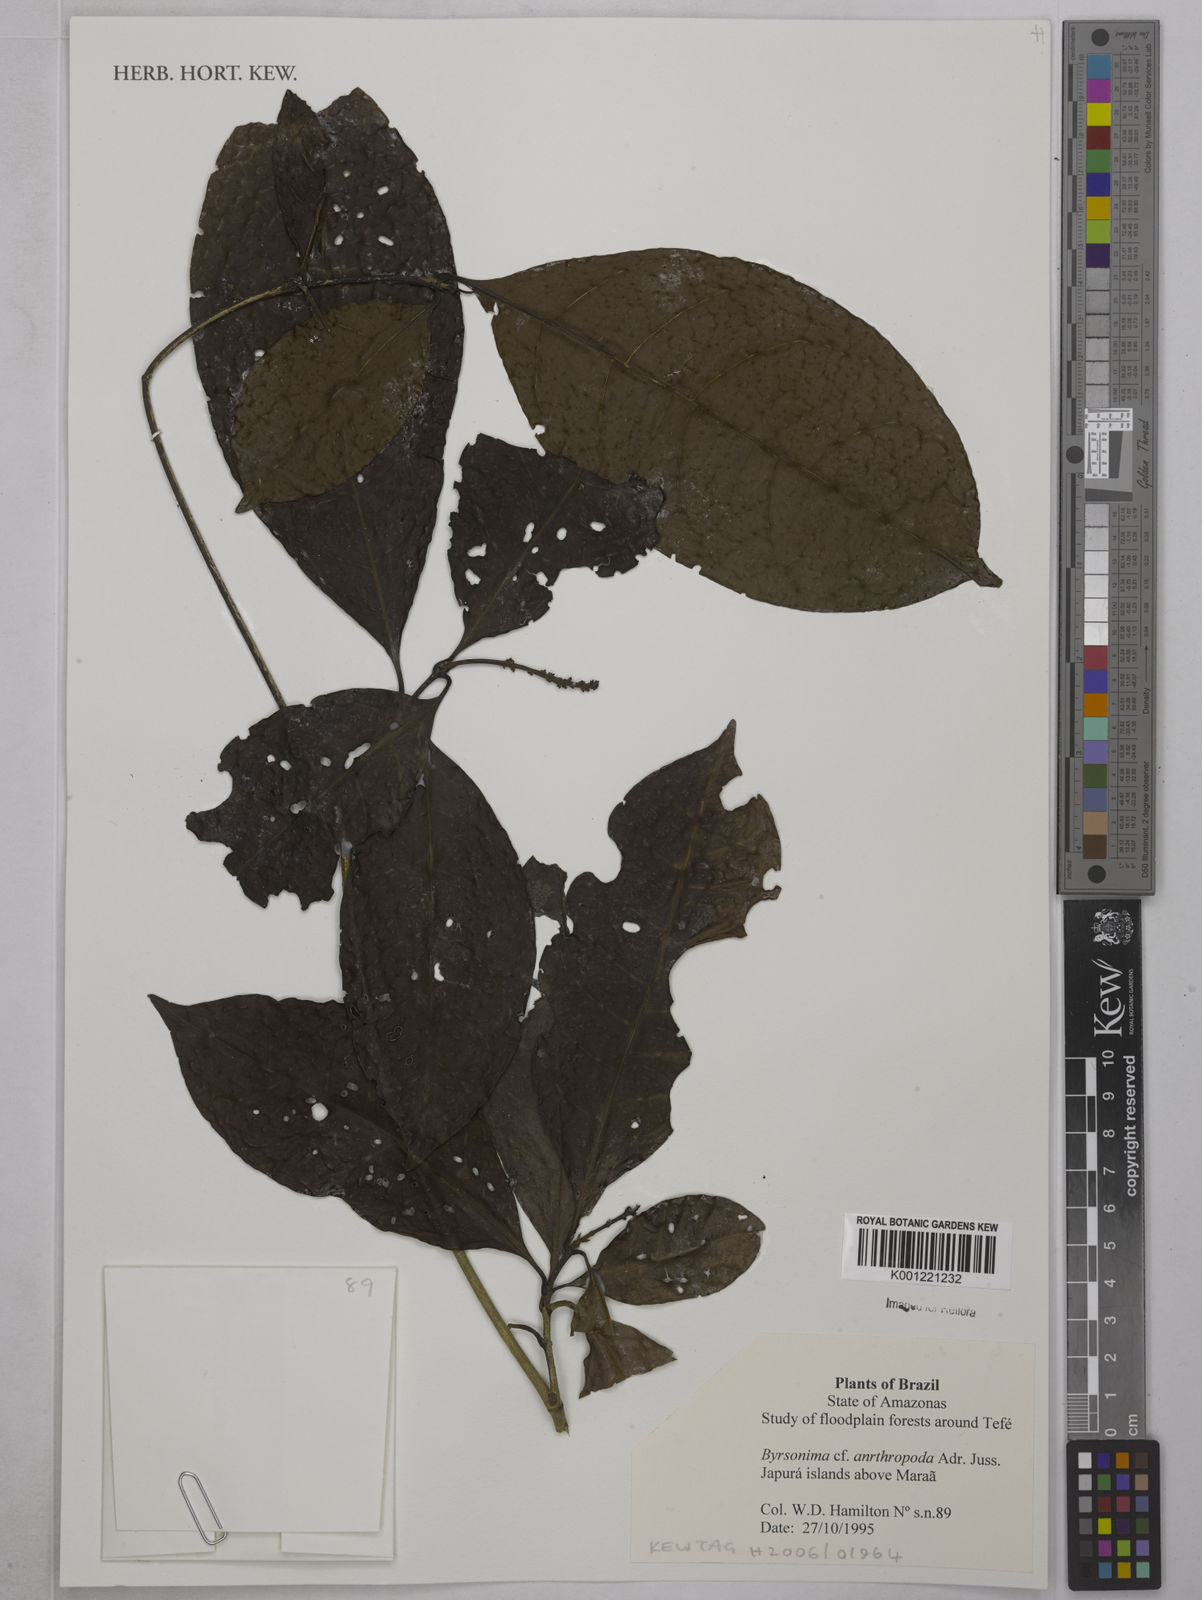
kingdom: Plantae
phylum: Tracheophyta
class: Magnoliopsida
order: Malpighiales
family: Malpighiaceae
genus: Byrsonima
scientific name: Byrsonima arthropoda
